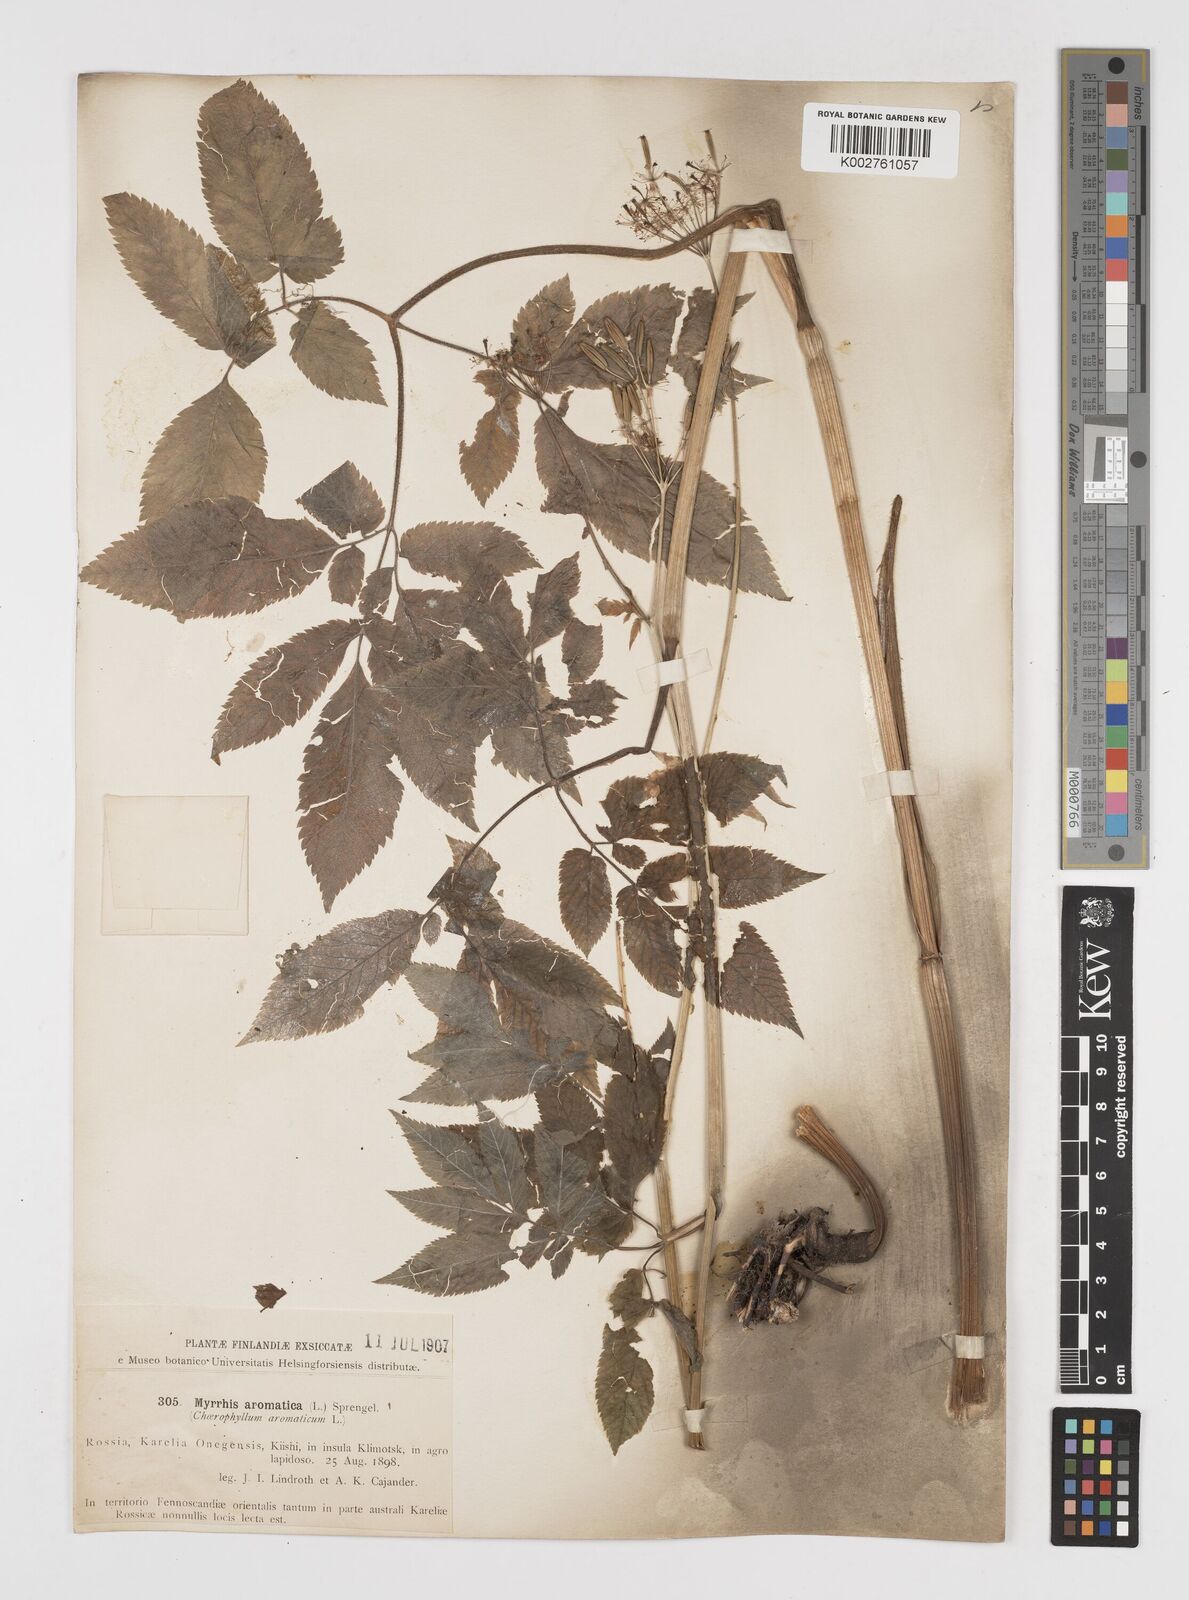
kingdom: Plantae
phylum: Tracheophyta
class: Magnoliopsida
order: Apiales
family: Apiaceae
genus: Chaerophyllum
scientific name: Chaerophyllum aromaticum
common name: Broadleaf chervil
